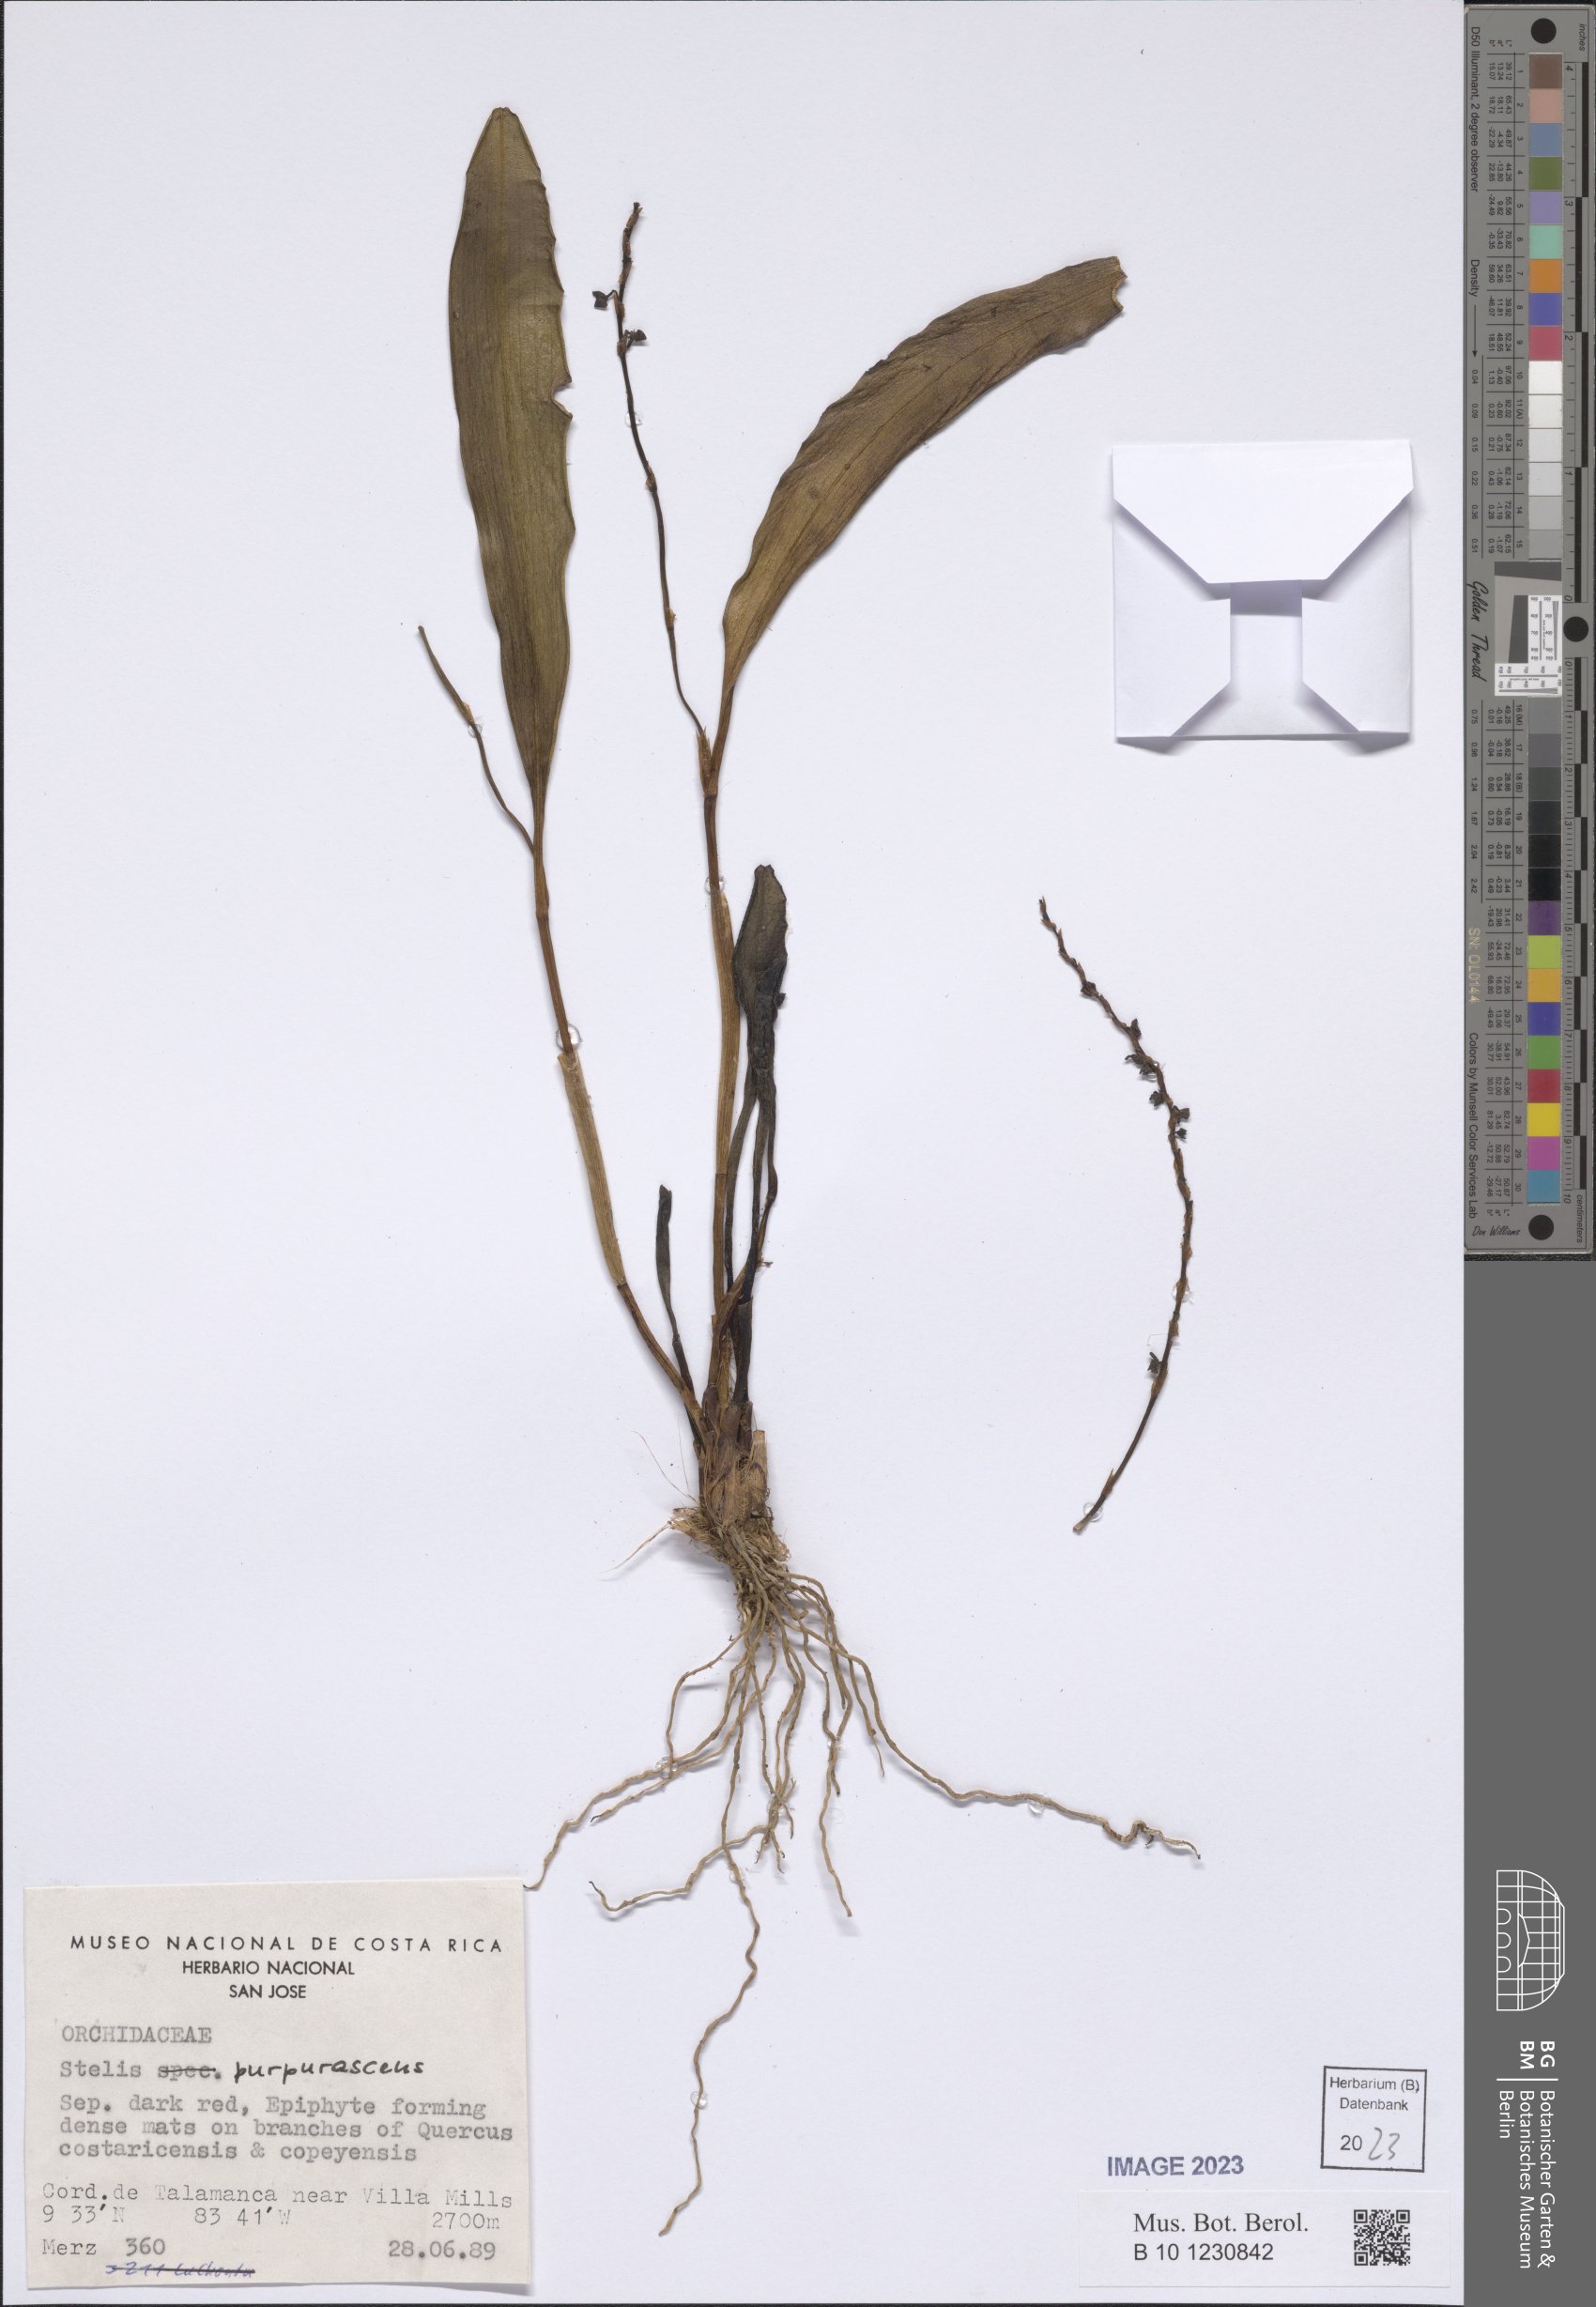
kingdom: Plantae
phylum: Tracheophyta
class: Liliopsida
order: Asparagales
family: Orchidaceae
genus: Stelis
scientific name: Stelis purpurascens
